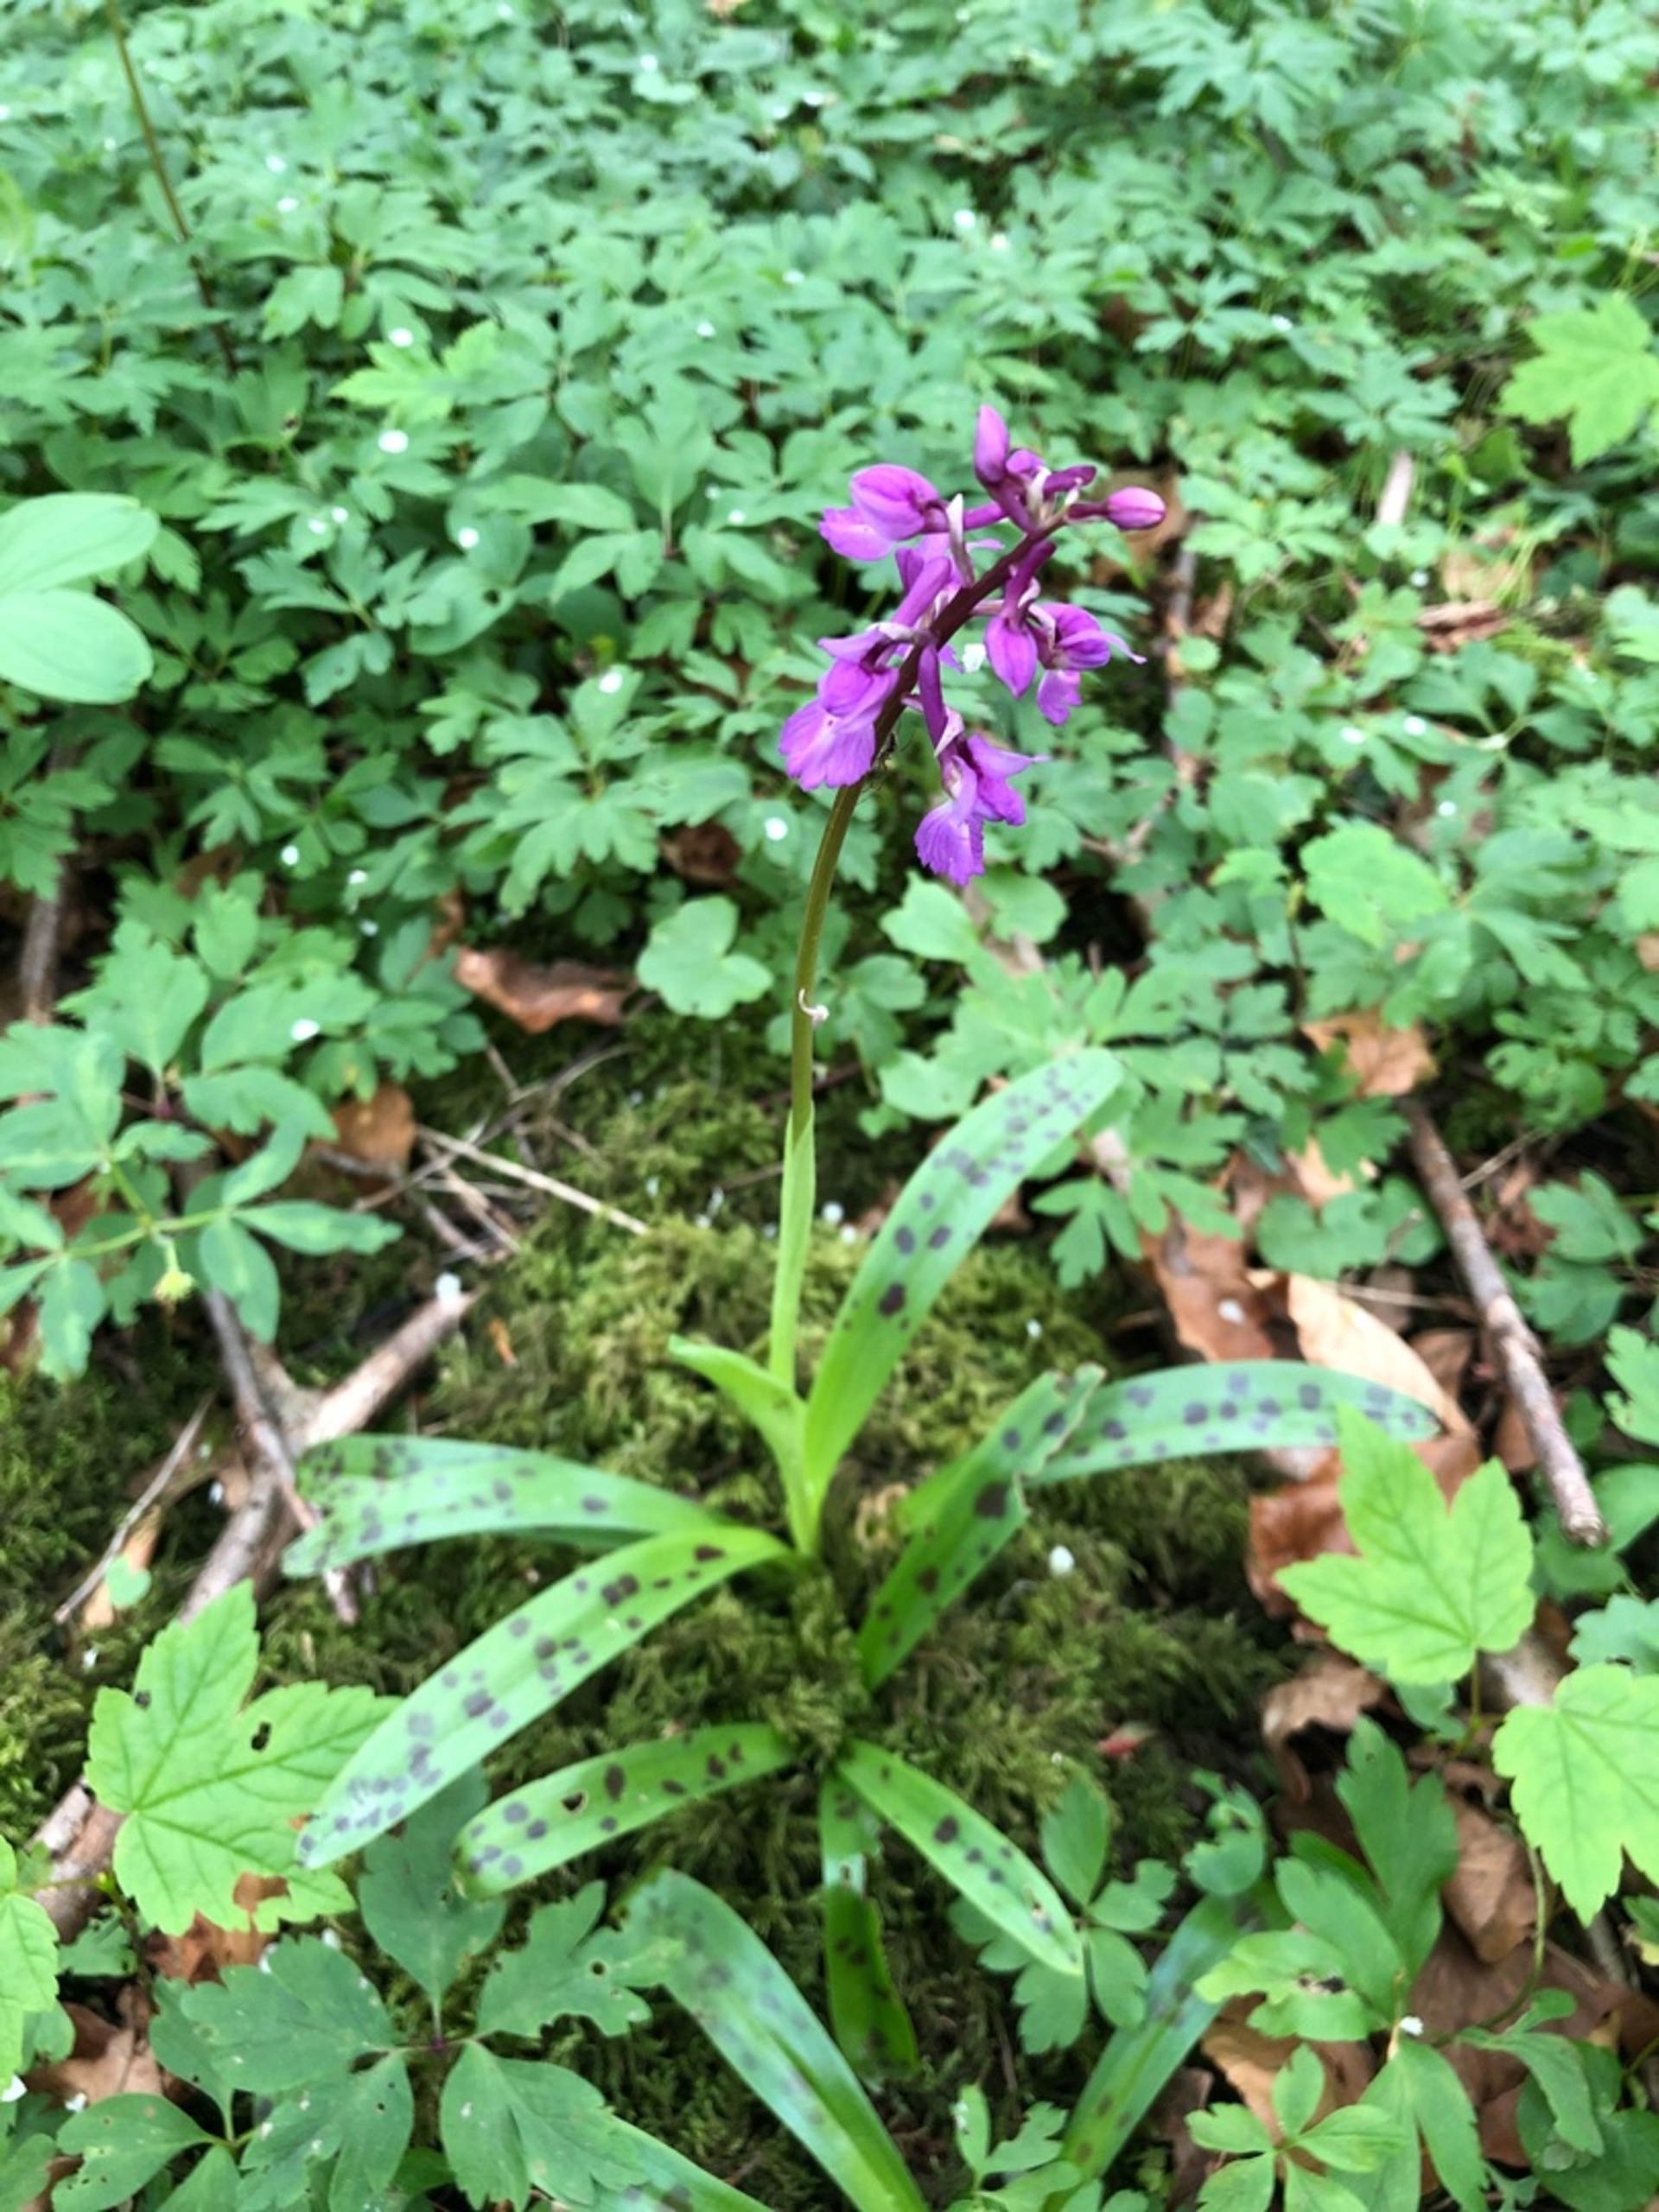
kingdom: Plantae
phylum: Tracheophyta
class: Liliopsida
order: Asparagales
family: Orchidaceae
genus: Orchis
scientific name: Orchis mascula
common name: Tyndakset gøgeurt
